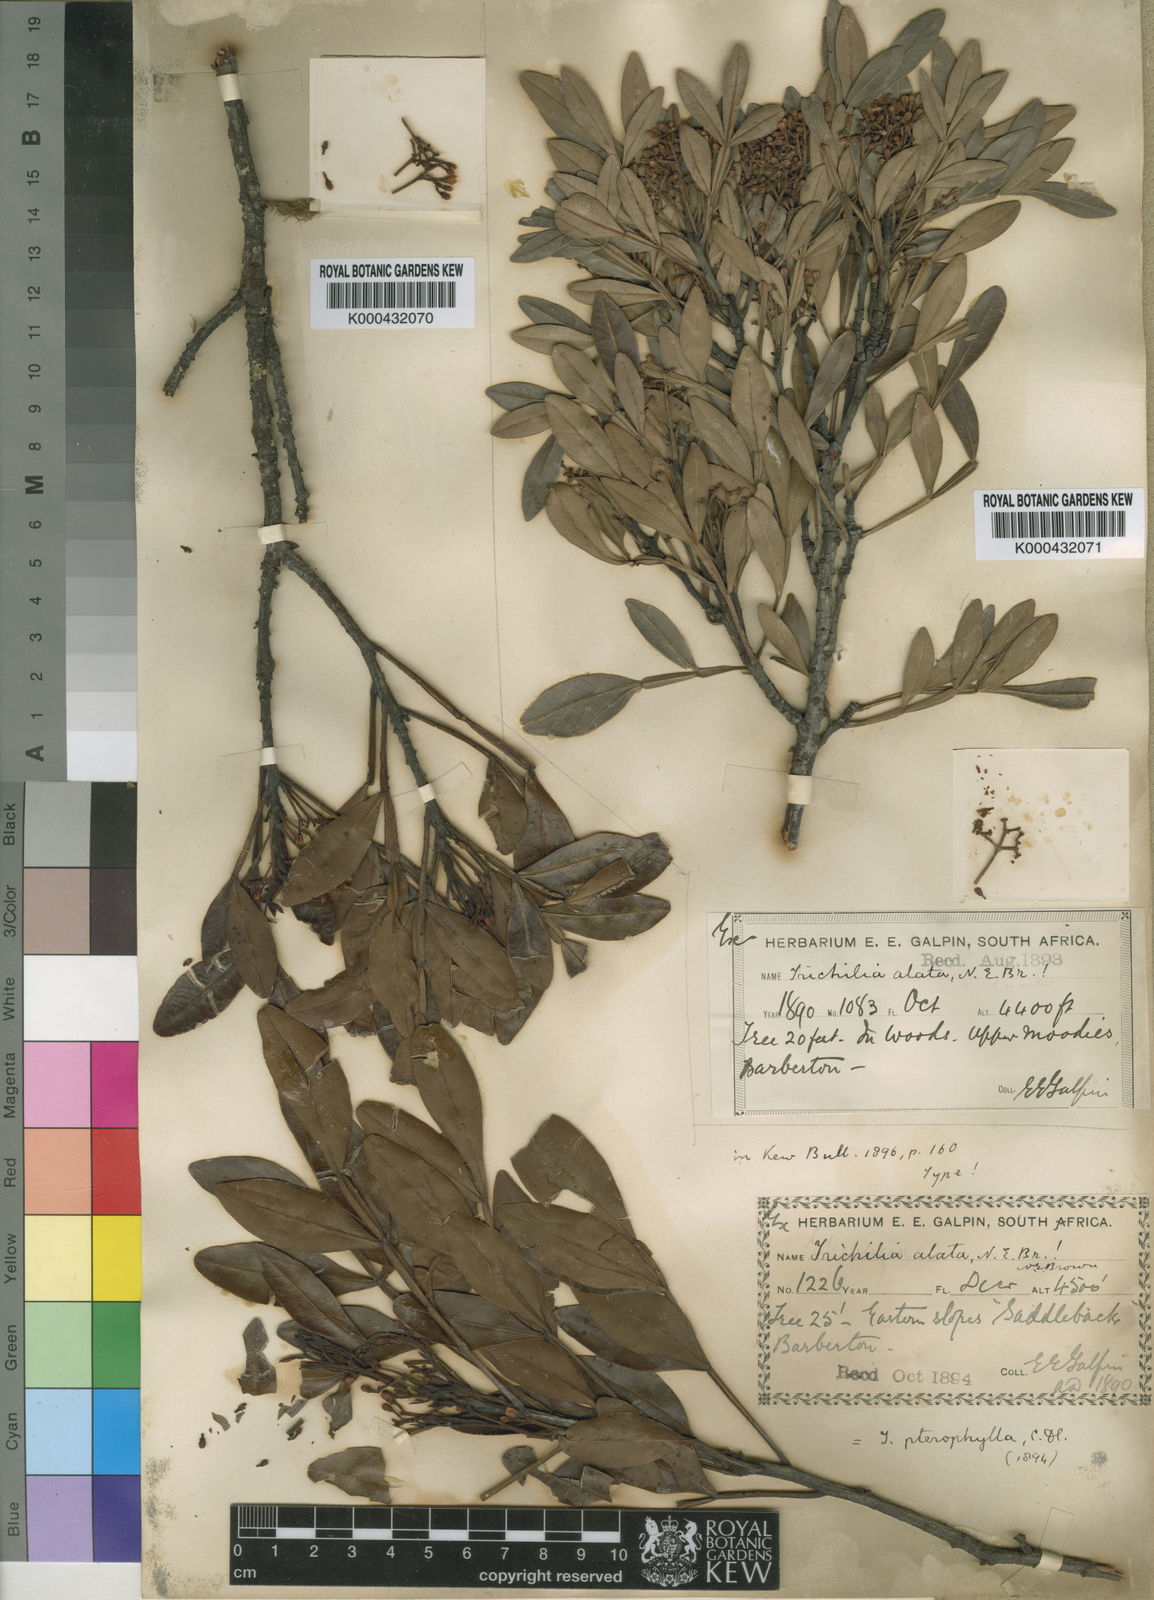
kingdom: Plantae
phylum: Tracheophyta
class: Magnoliopsida
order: Sapindales
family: Meliaceae
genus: Ekebergia
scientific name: Ekebergia pterophylla
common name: Cape ash
